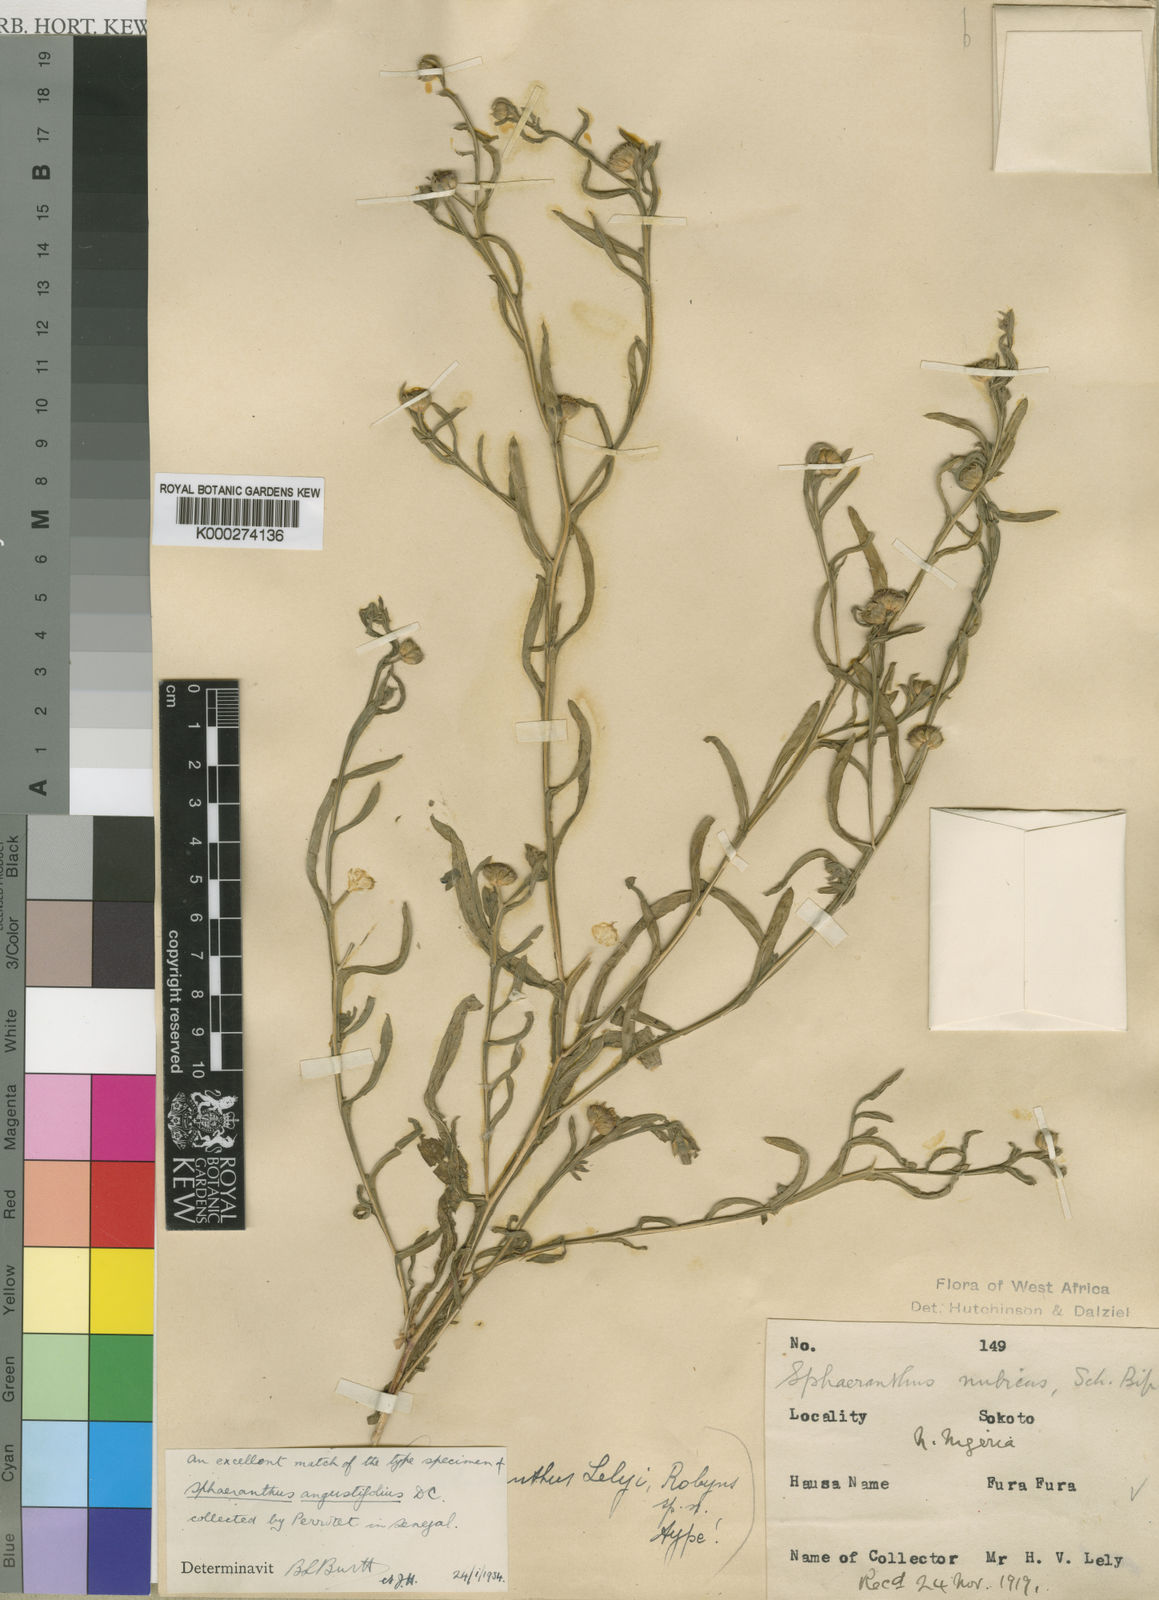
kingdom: Plantae
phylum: Tracheophyta
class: Magnoliopsida
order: Asterales
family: Asteraceae
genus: Sphaeranthus
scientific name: Sphaeranthus angustifolius
